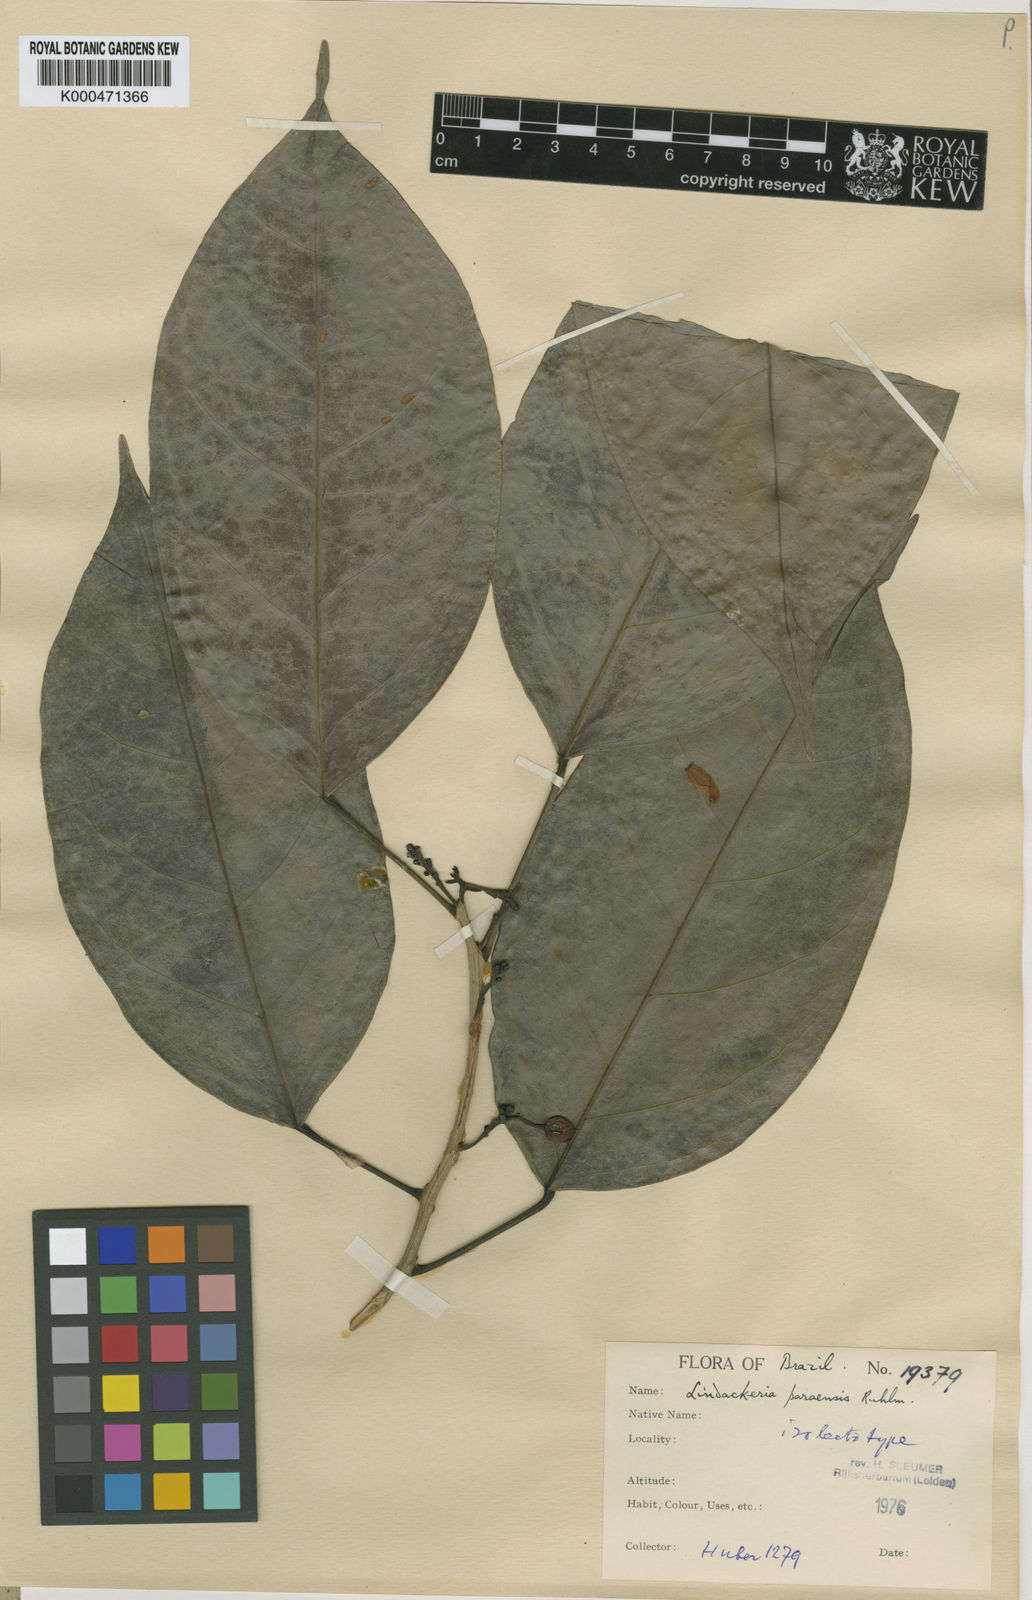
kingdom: Plantae
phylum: Tracheophyta
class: Magnoliopsida
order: Malpighiales
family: Achariaceae
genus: Lindackeria
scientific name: Lindackeria paraensis
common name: Canela-de-velha
